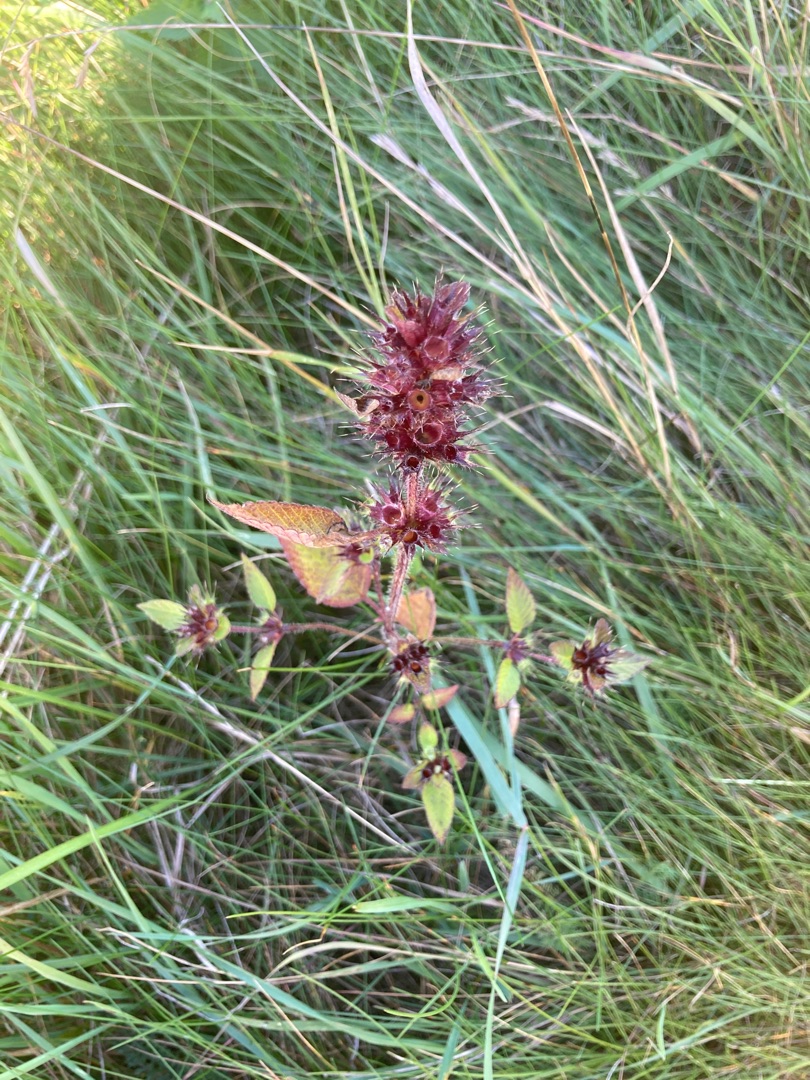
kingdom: Plantae
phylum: Tracheophyta
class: Magnoliopsida
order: Lamiales
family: Lamiaceae
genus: Galeopsis
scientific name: Galeopsis
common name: Hanekroslægten
